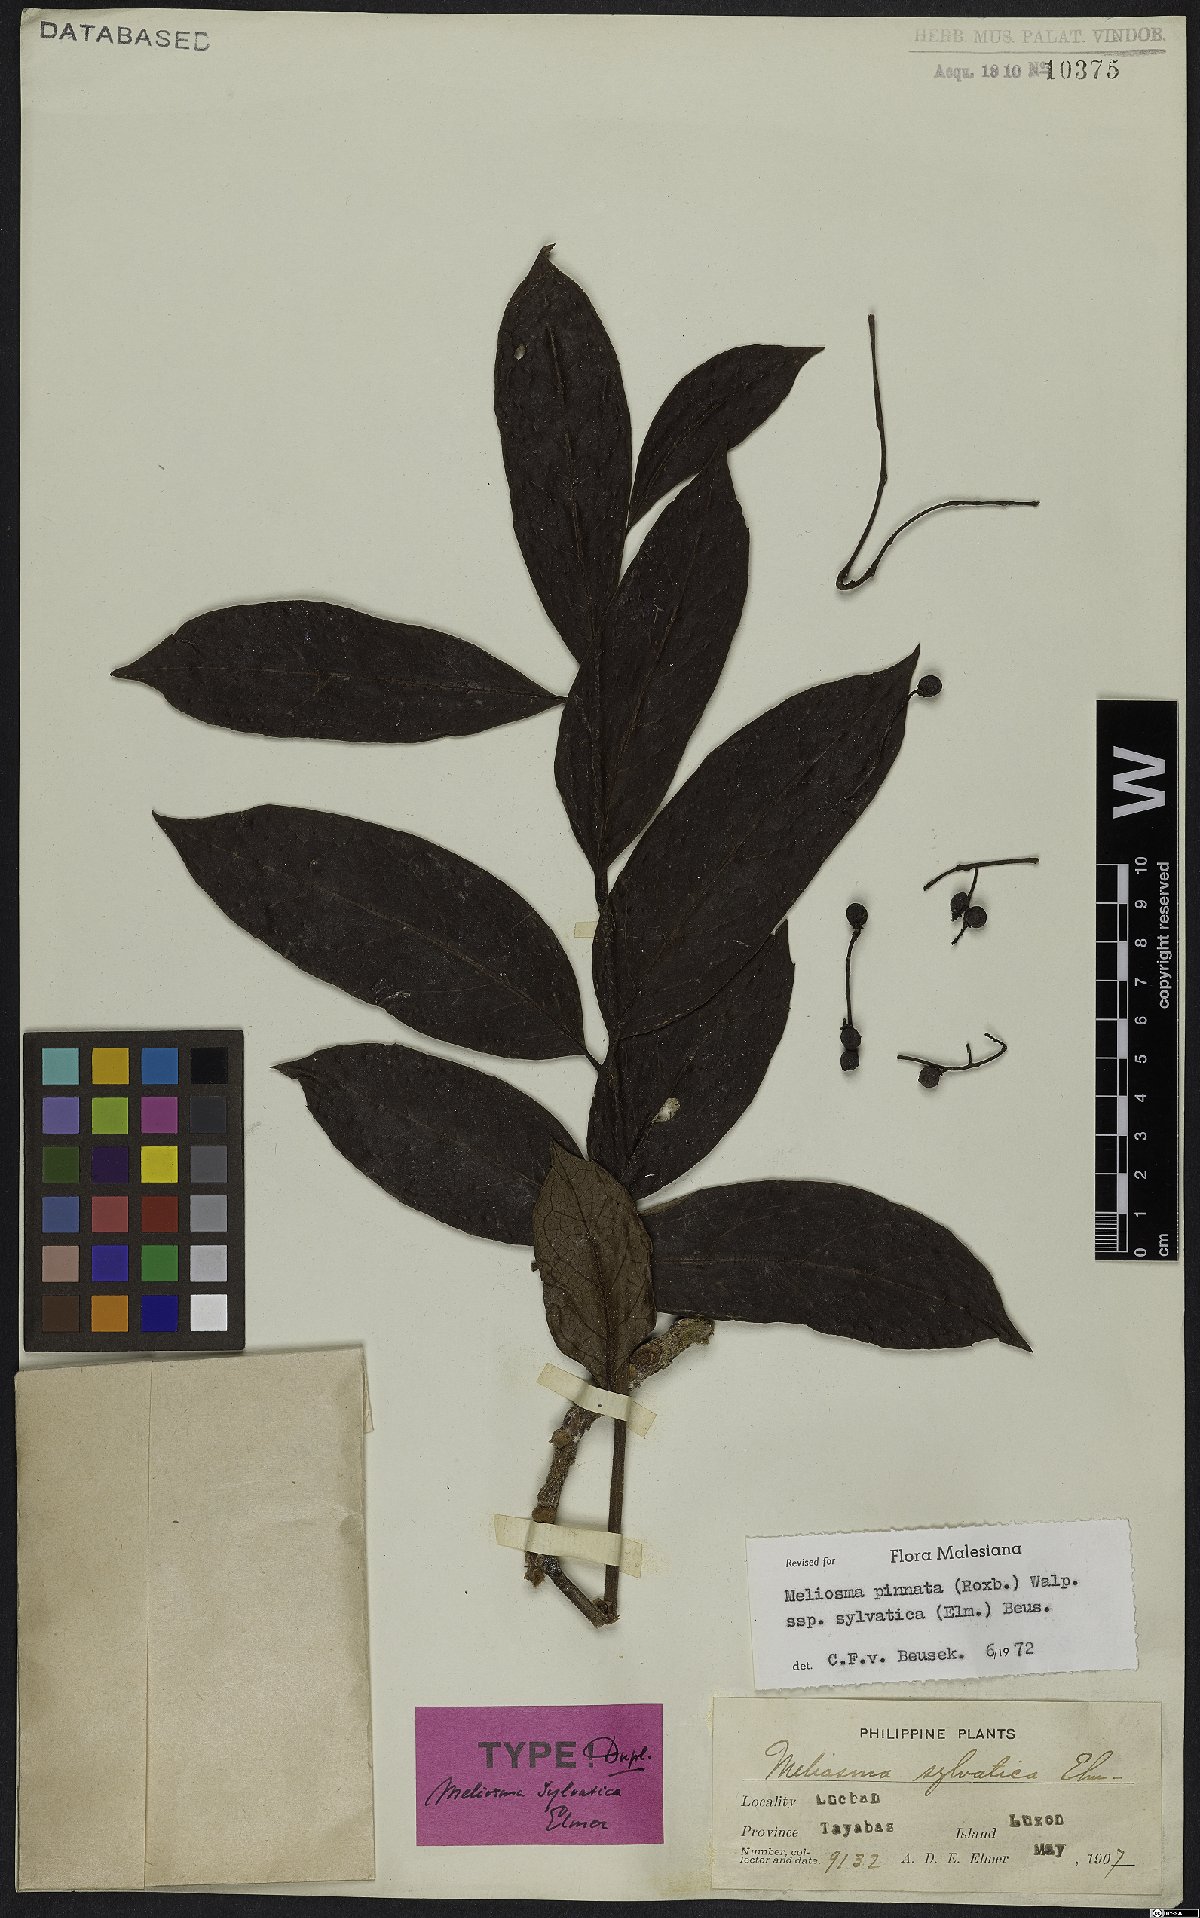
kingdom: Plantae
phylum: Tracheophyta
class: Magnoliopsida
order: Proteales
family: Sabiaceae
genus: Meliosma
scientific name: Meliosma pinnata
